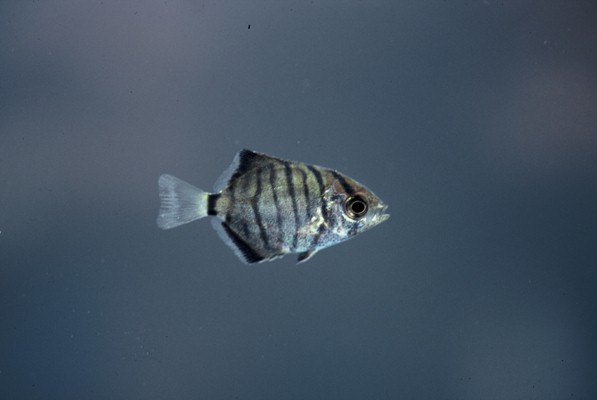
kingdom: Animalia
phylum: Chordata
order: Perciformes
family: Monodactylidae
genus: Monodactylus
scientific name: Monodactylus falciformis
